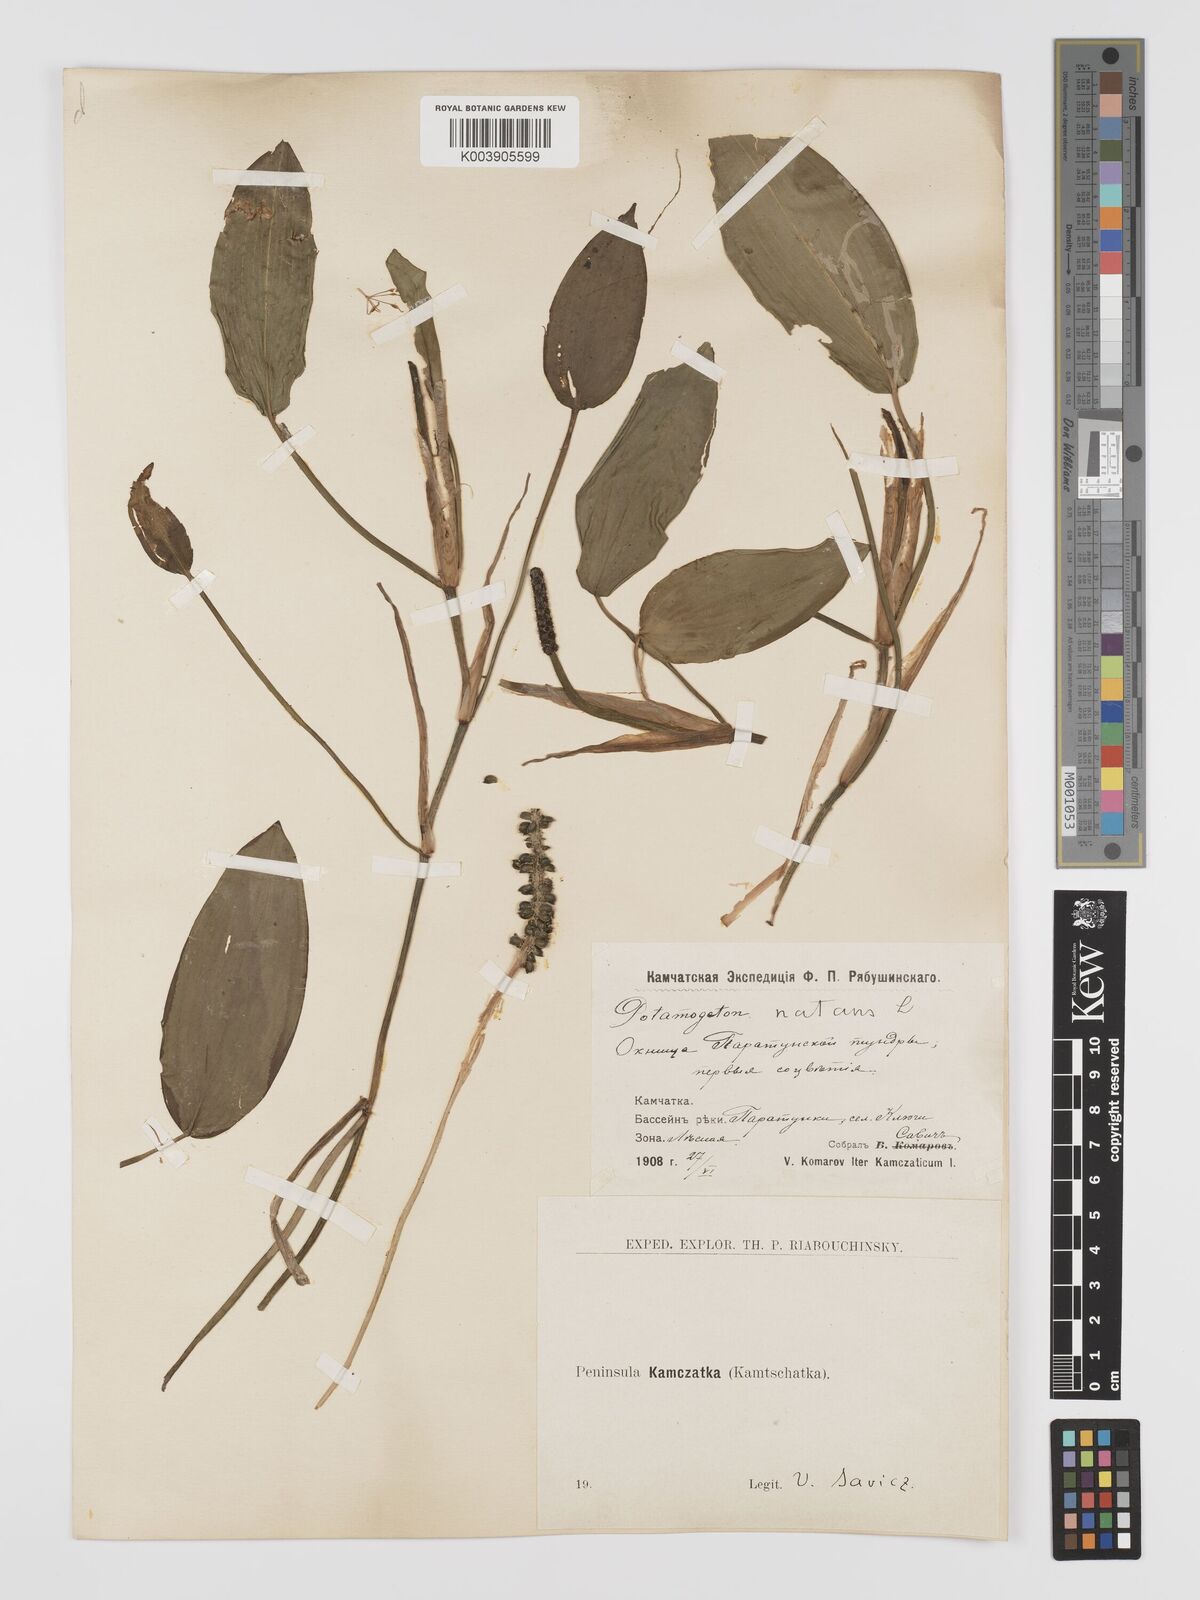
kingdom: Plantae
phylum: Tracheophyta
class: Liliopsida
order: Alismatales
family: Potamogetonaceae
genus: Potamogeton
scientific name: Potamogeton natans
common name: Broad-leaved pondweed
